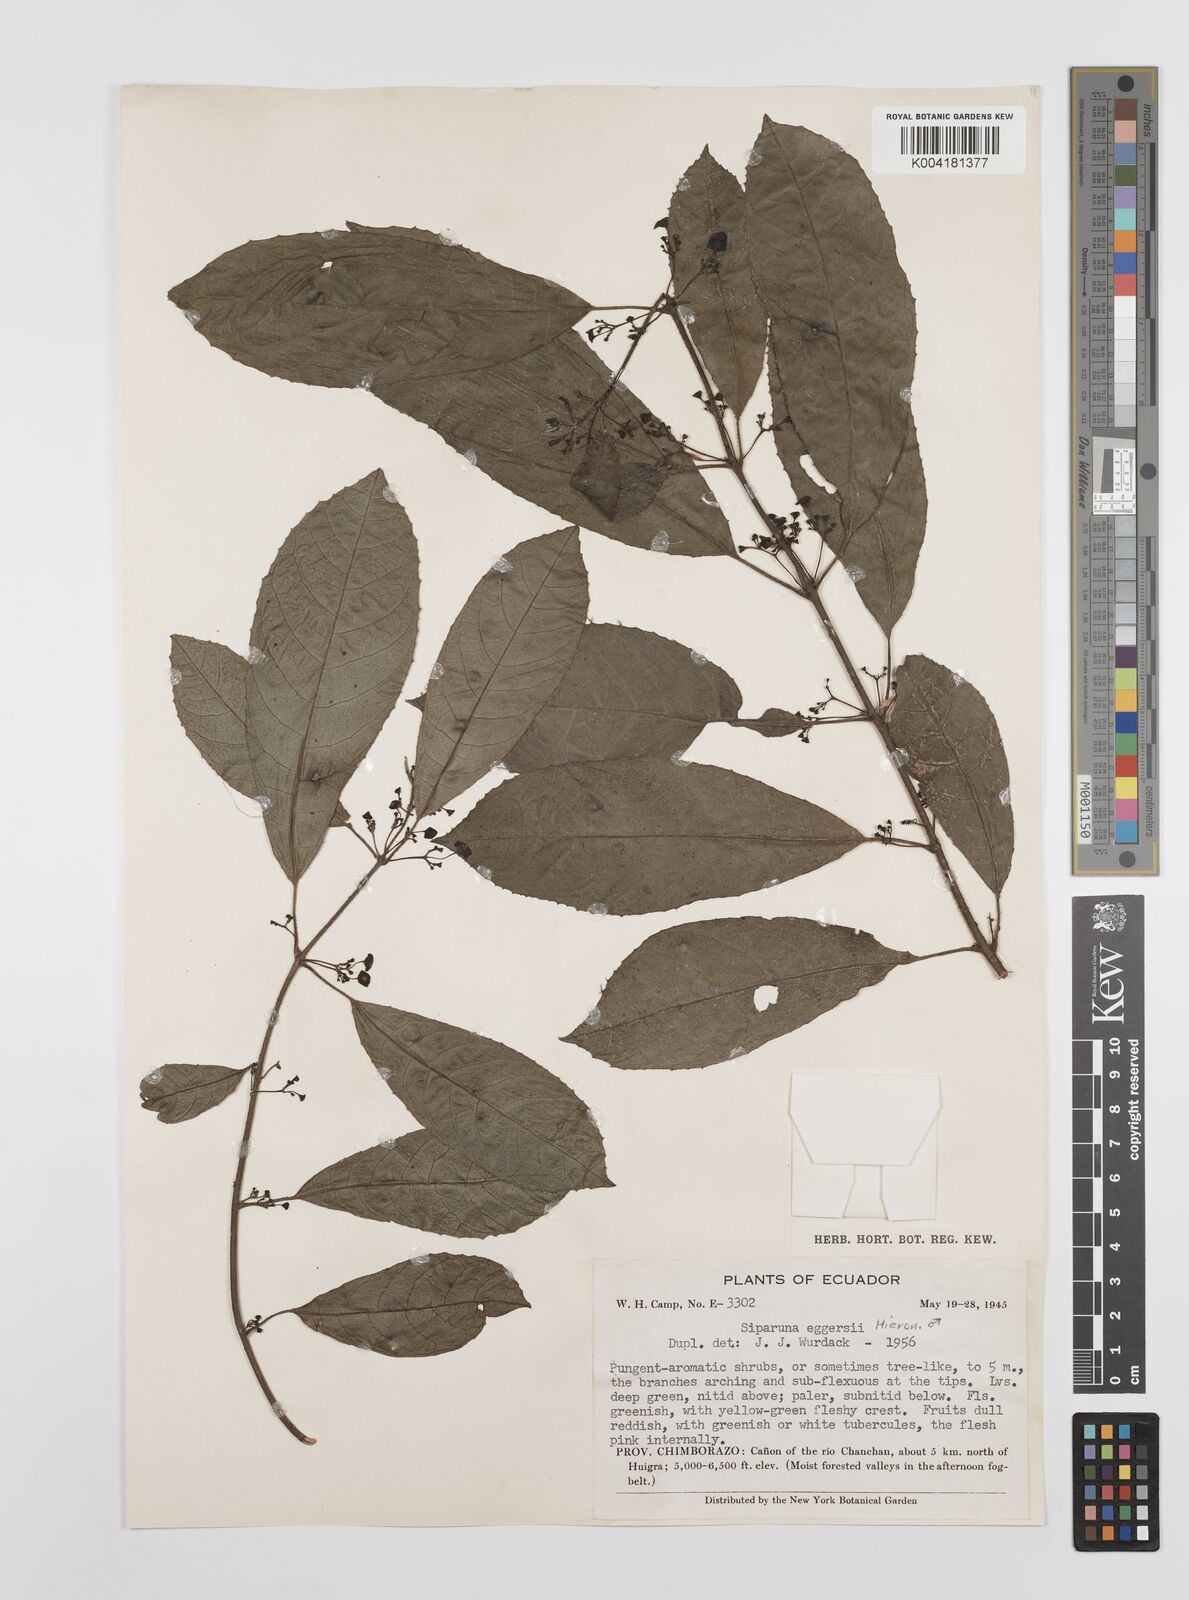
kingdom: Plantae
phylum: Tracheophyta
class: Magnoliopsida
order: Laurales
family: Siparunaceae
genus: Siparuna
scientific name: Siparuna eggersii
